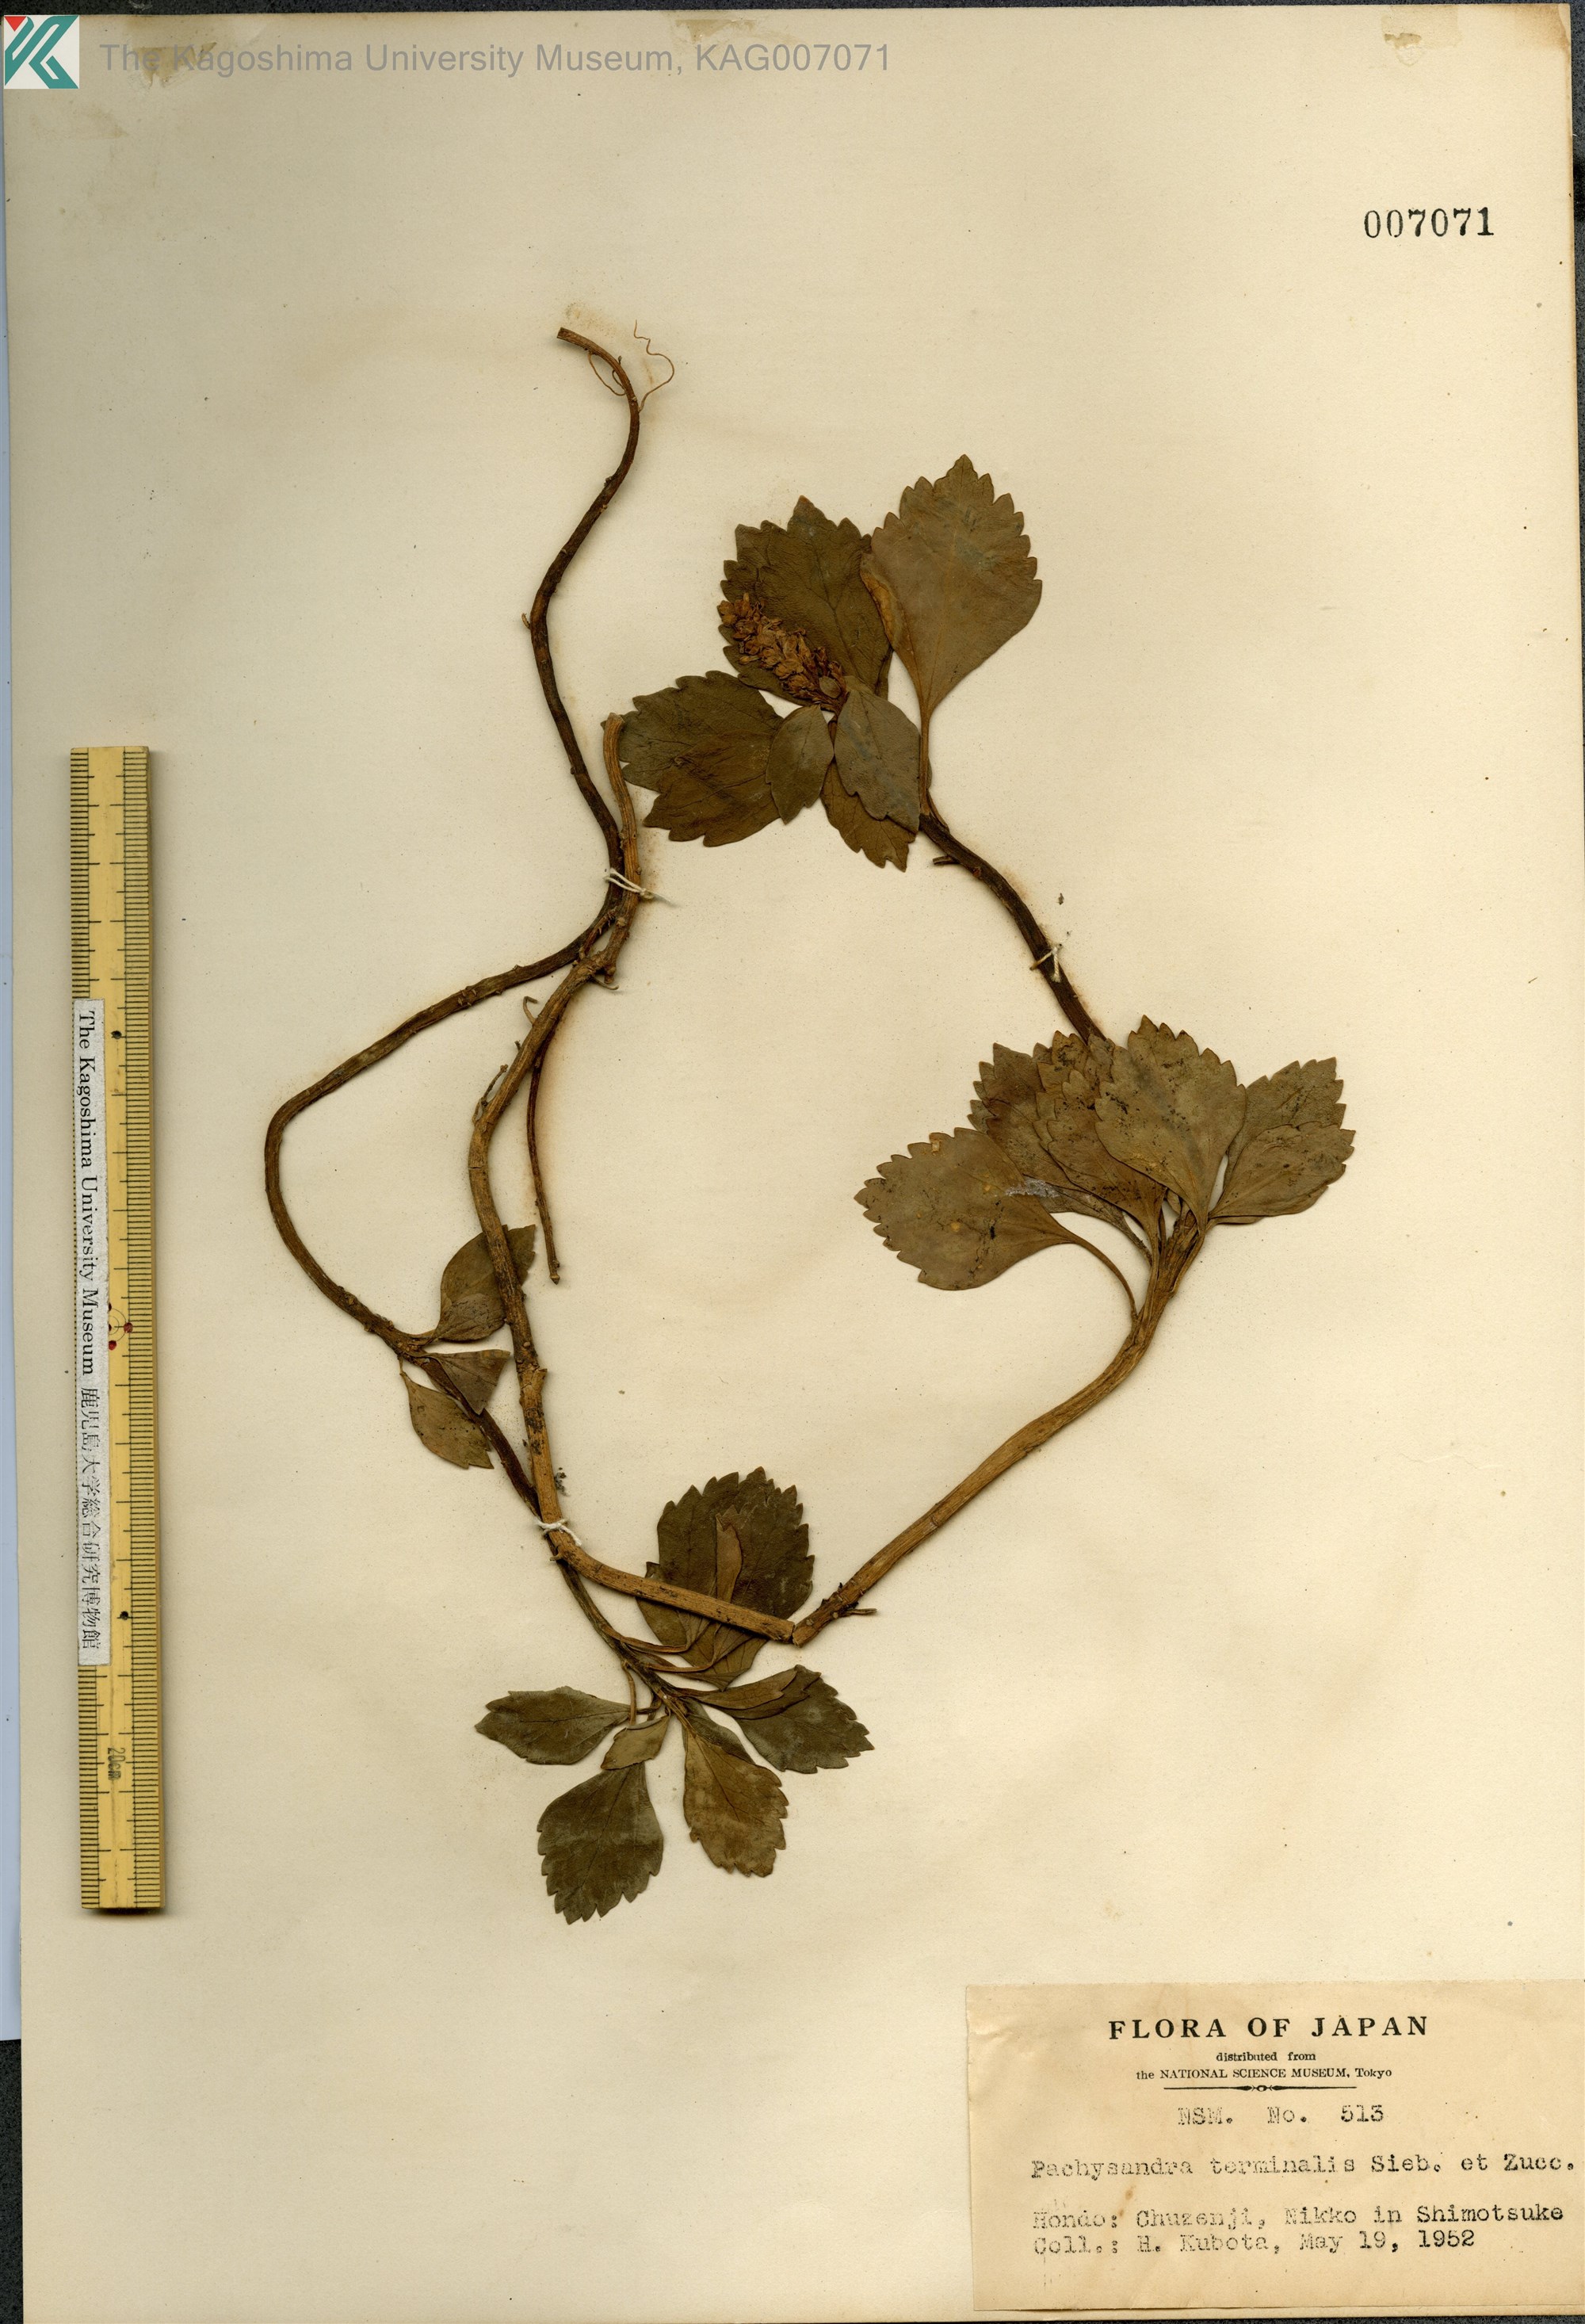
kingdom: Plantae
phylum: Tracheophyta
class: Magnoliopsida
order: Buxales
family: Buxaceae
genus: Pachysandra
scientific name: Pachysandra terminalis
